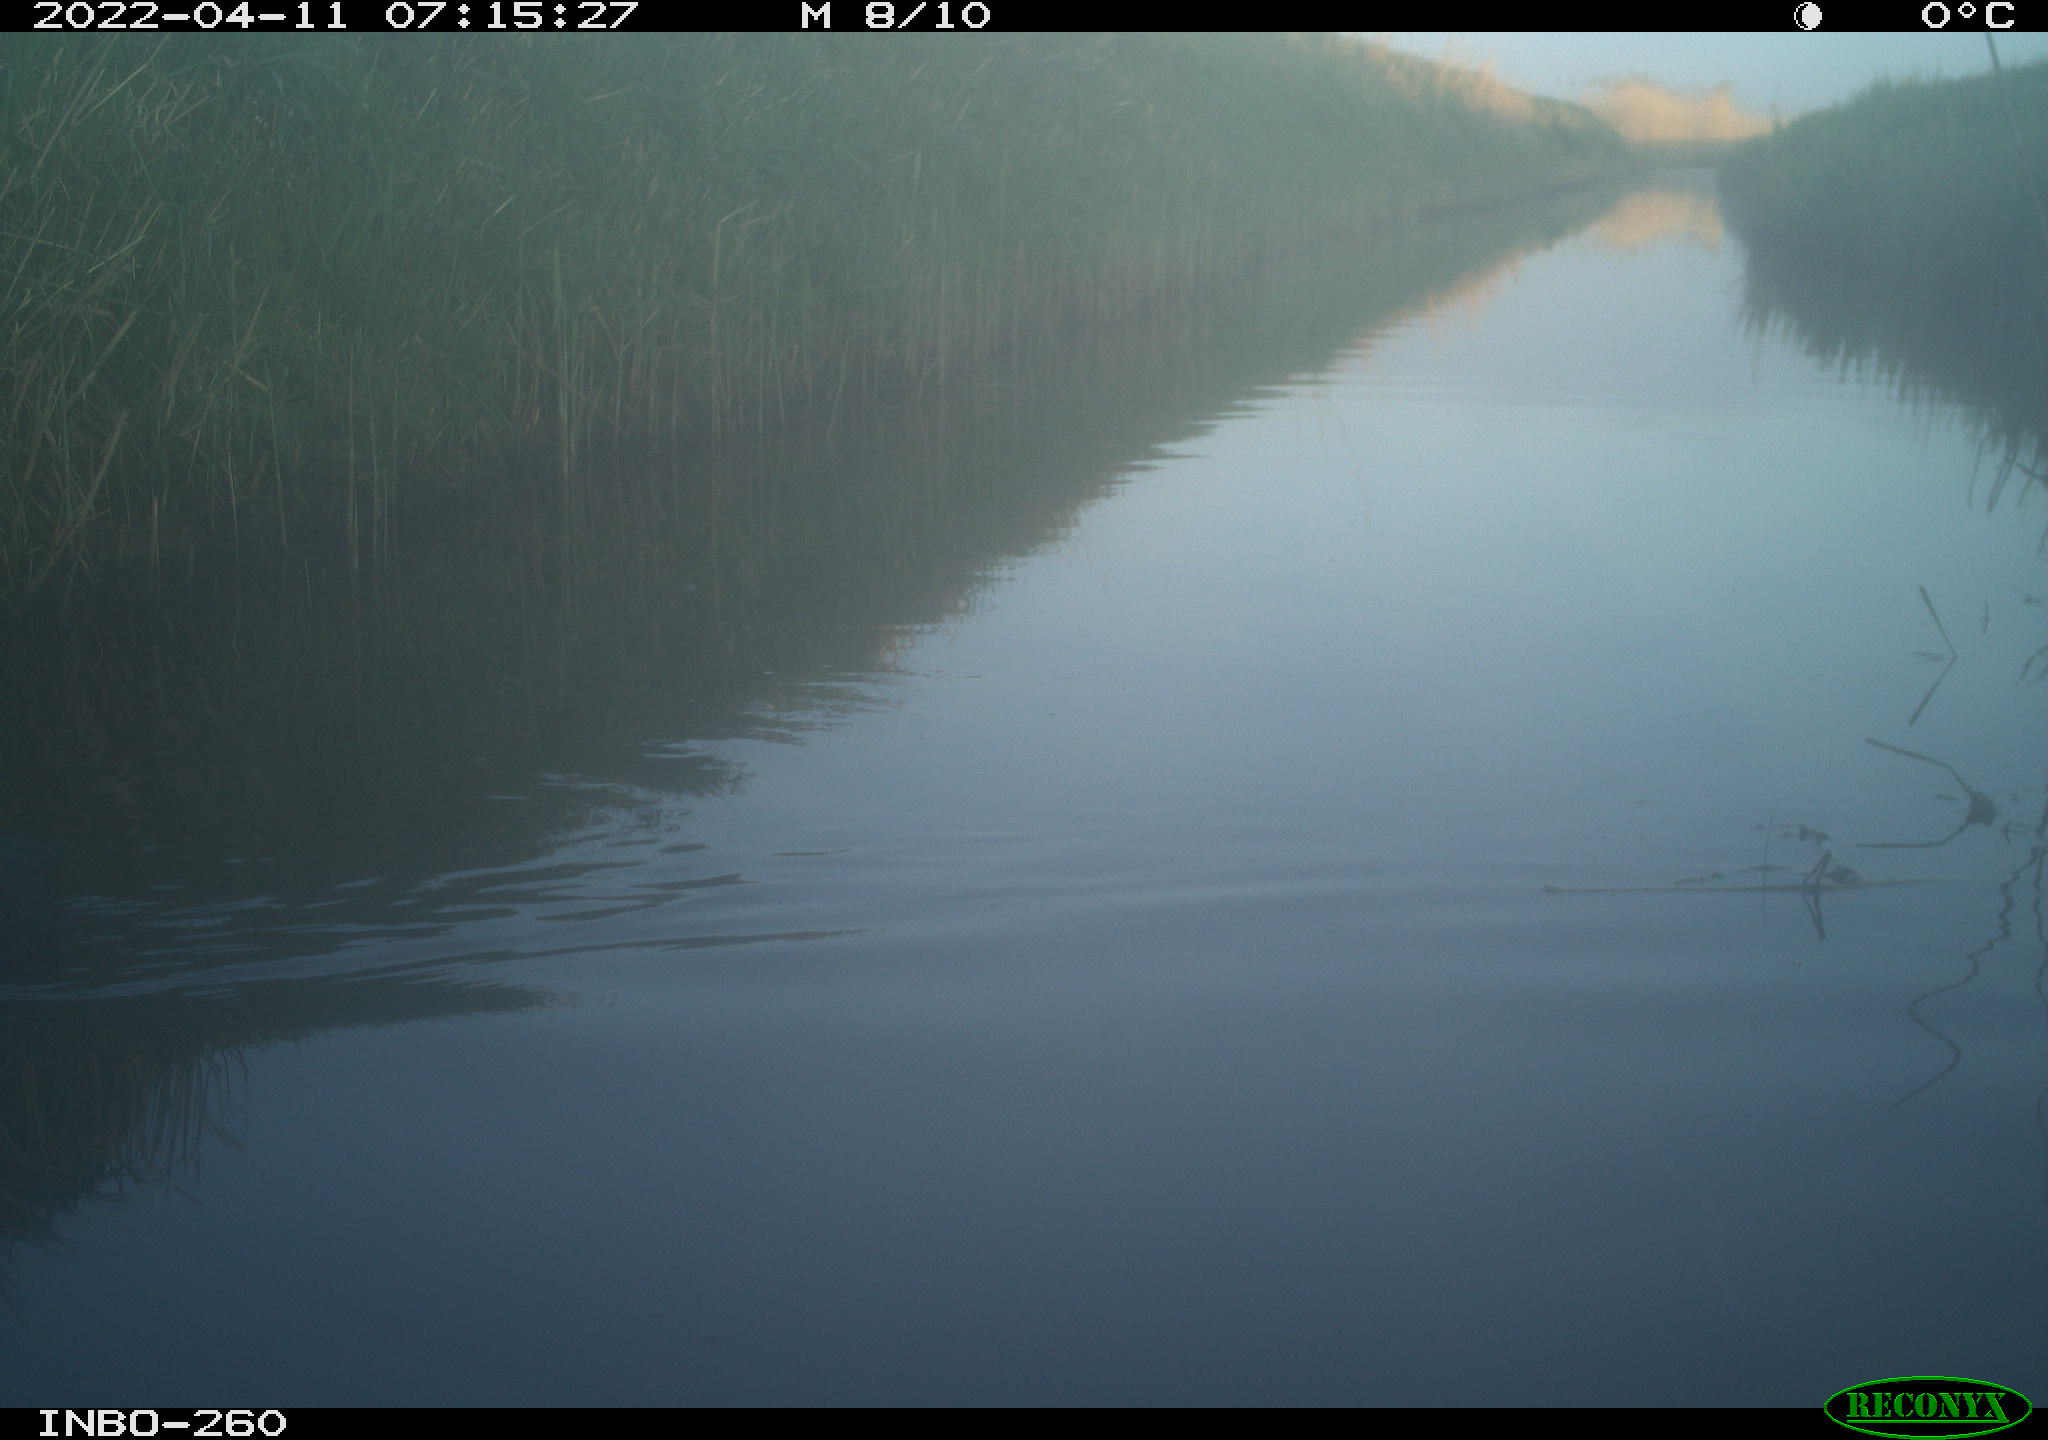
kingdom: Animalia
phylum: Chordata
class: Aves
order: Gruiformes
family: Rallidae
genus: Fulica
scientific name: Fulica atra
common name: Eurasian coot
